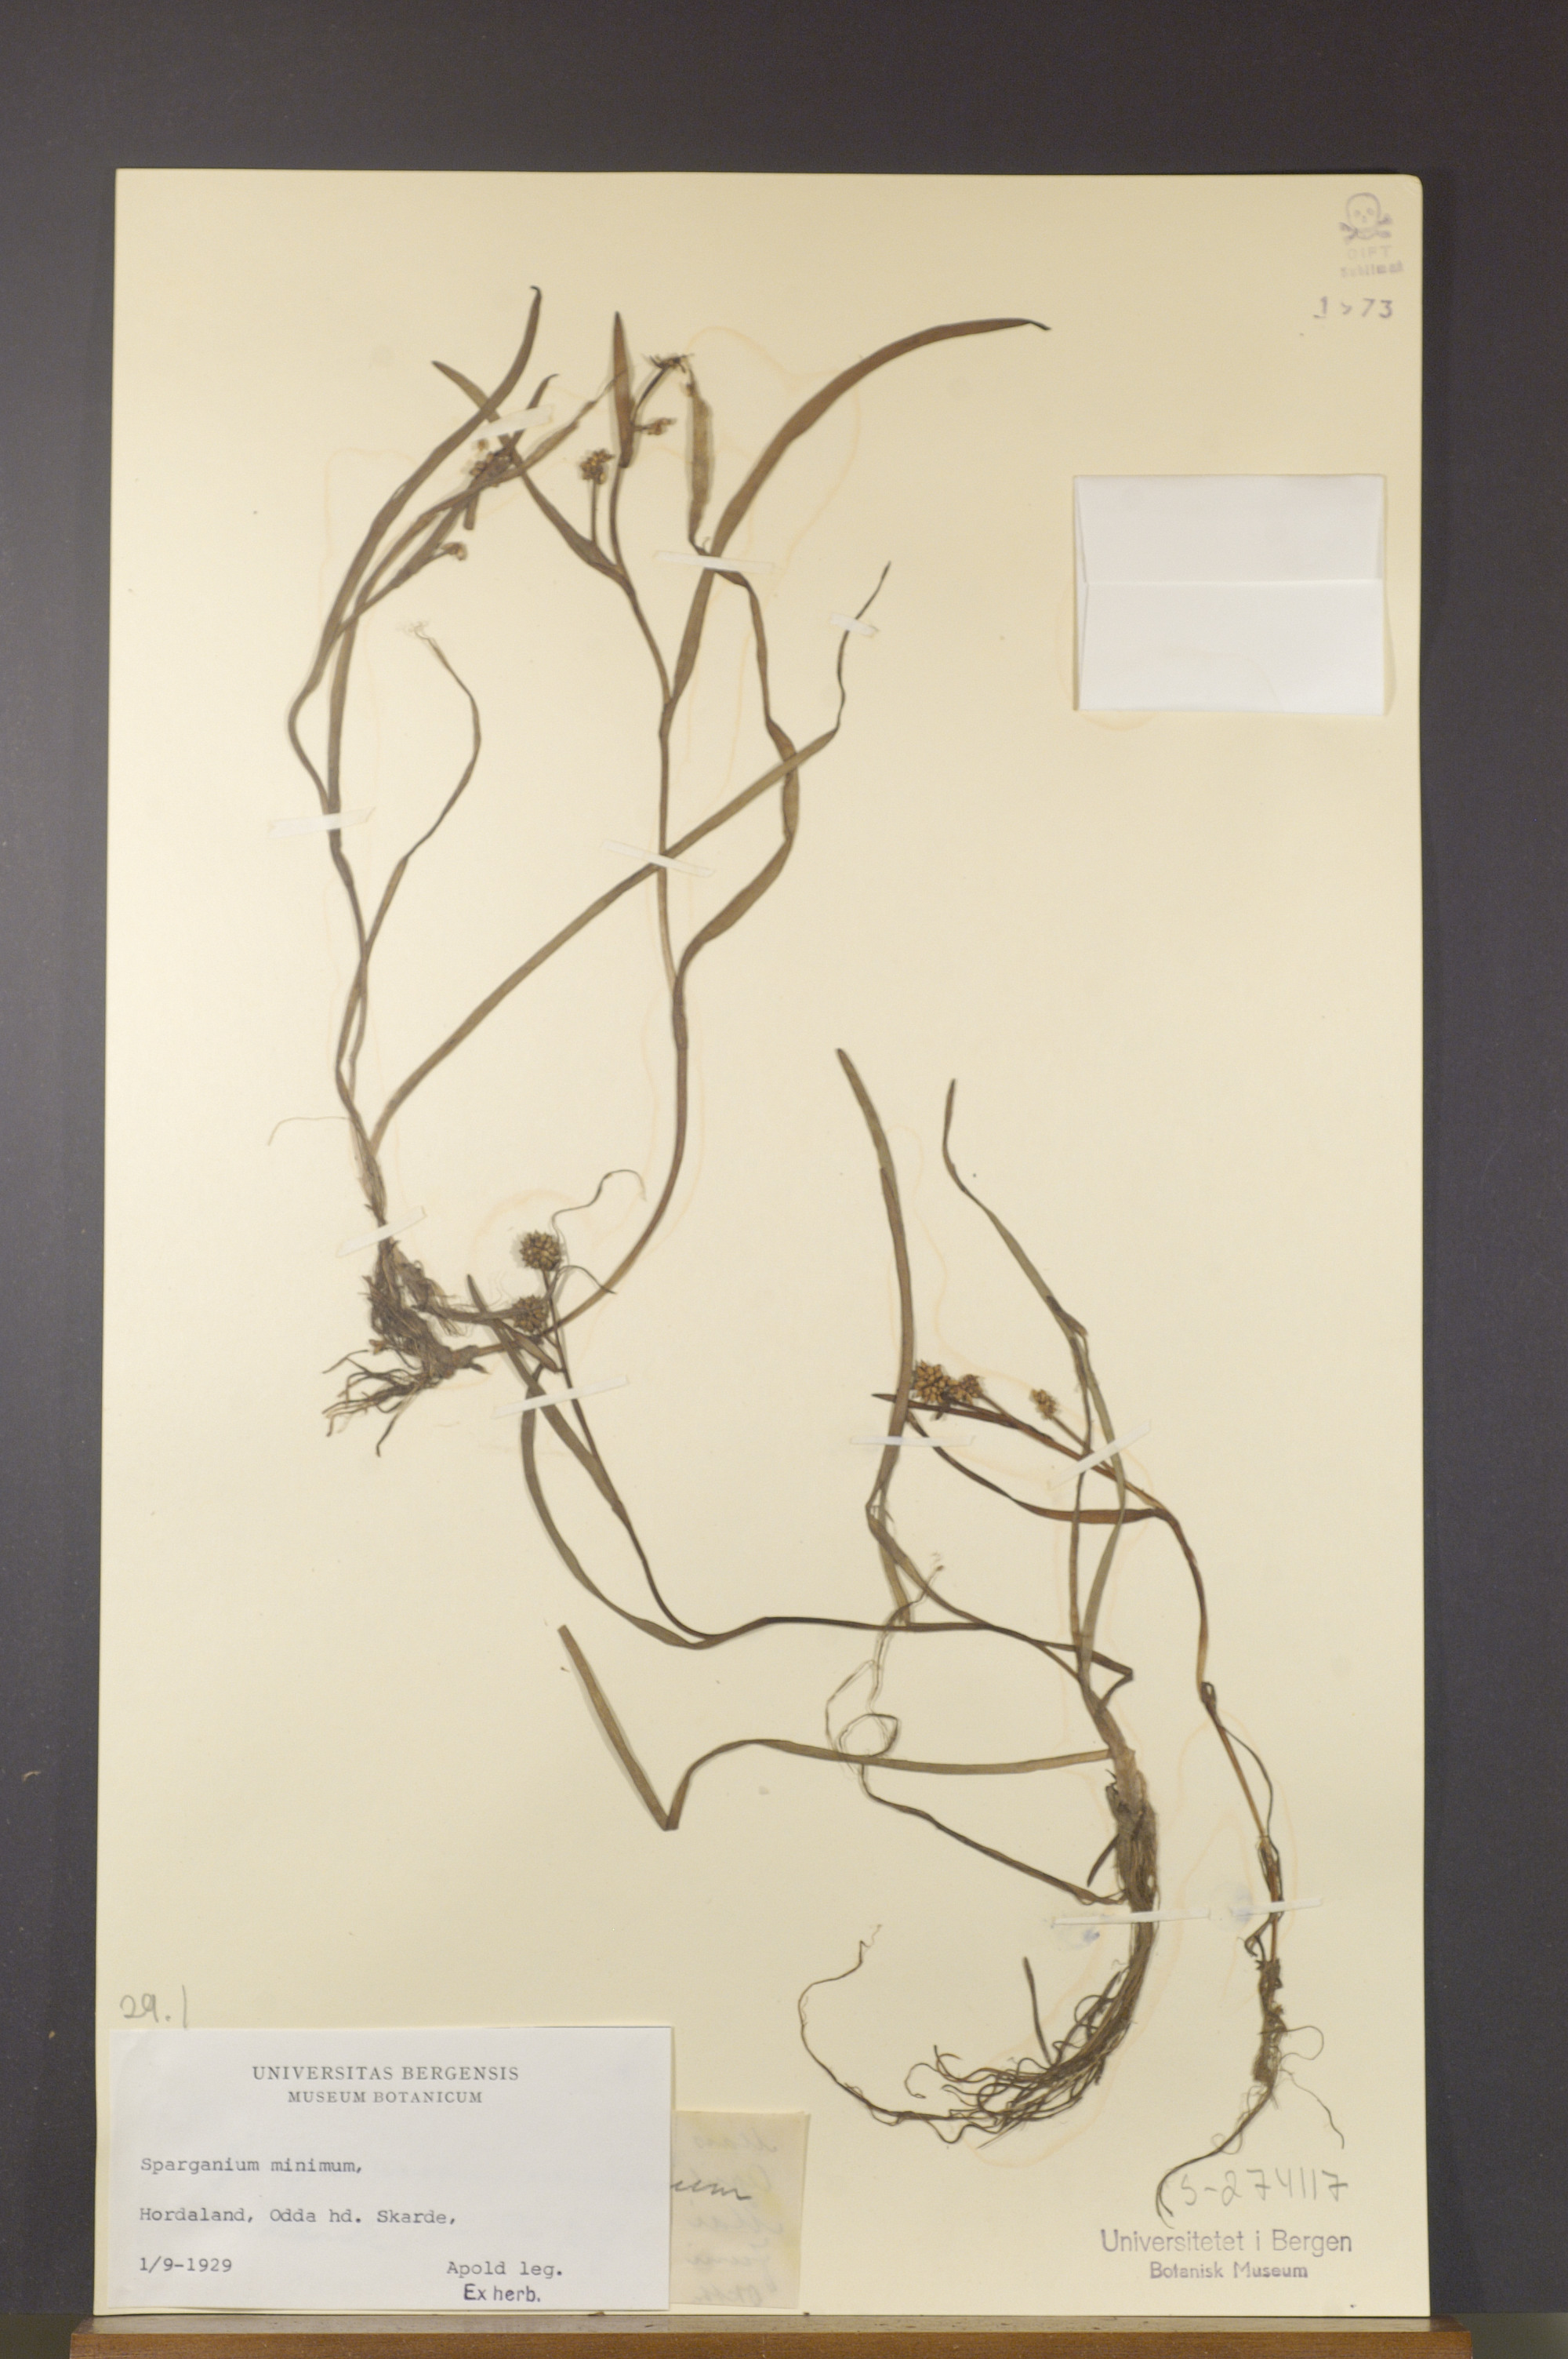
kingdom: Plantae
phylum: Tracheophyta
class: Liliopsida
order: Poales
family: Typhaceae
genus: Sparganium
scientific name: Sparganium natans
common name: Least bur-reed
